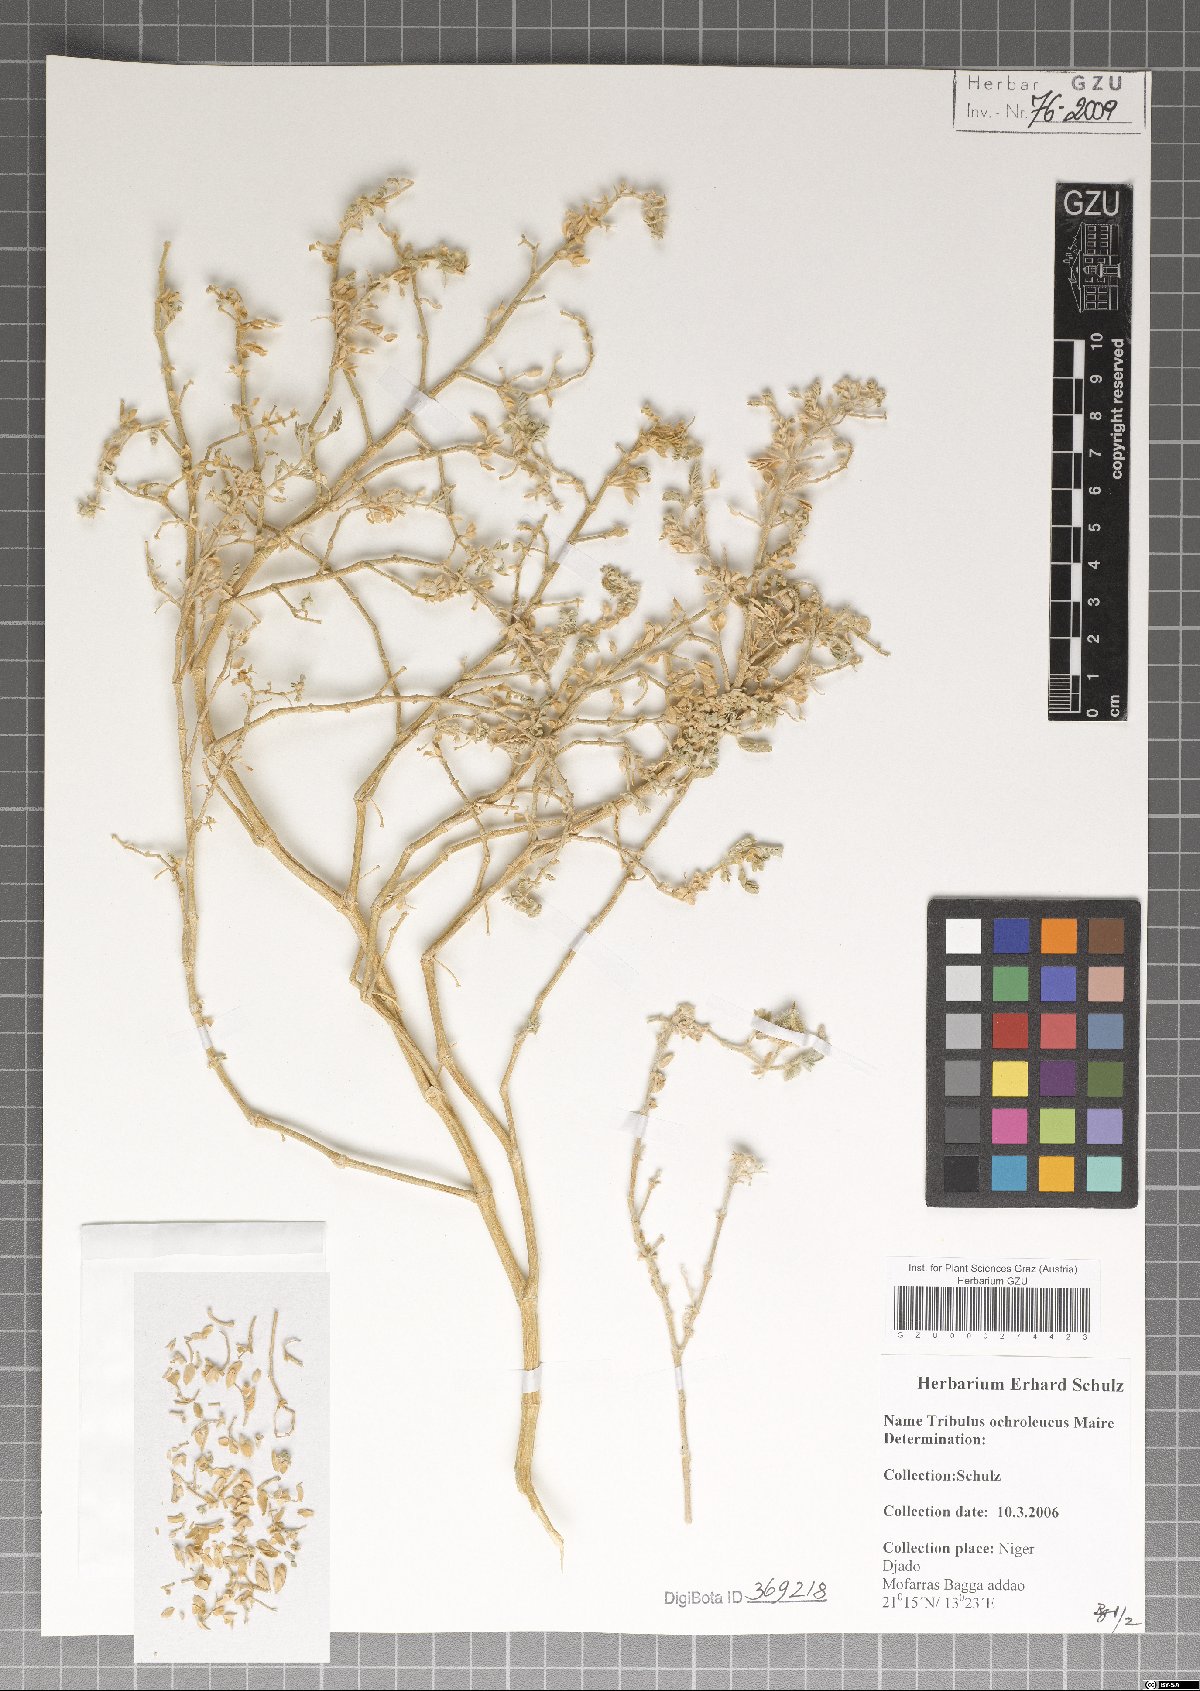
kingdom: Plantae
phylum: Tracheophyta
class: Magnoliopsida
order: Zygophyllales
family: Zygophyllaceae
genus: Tribulus
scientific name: Tribulus ochroleucus
